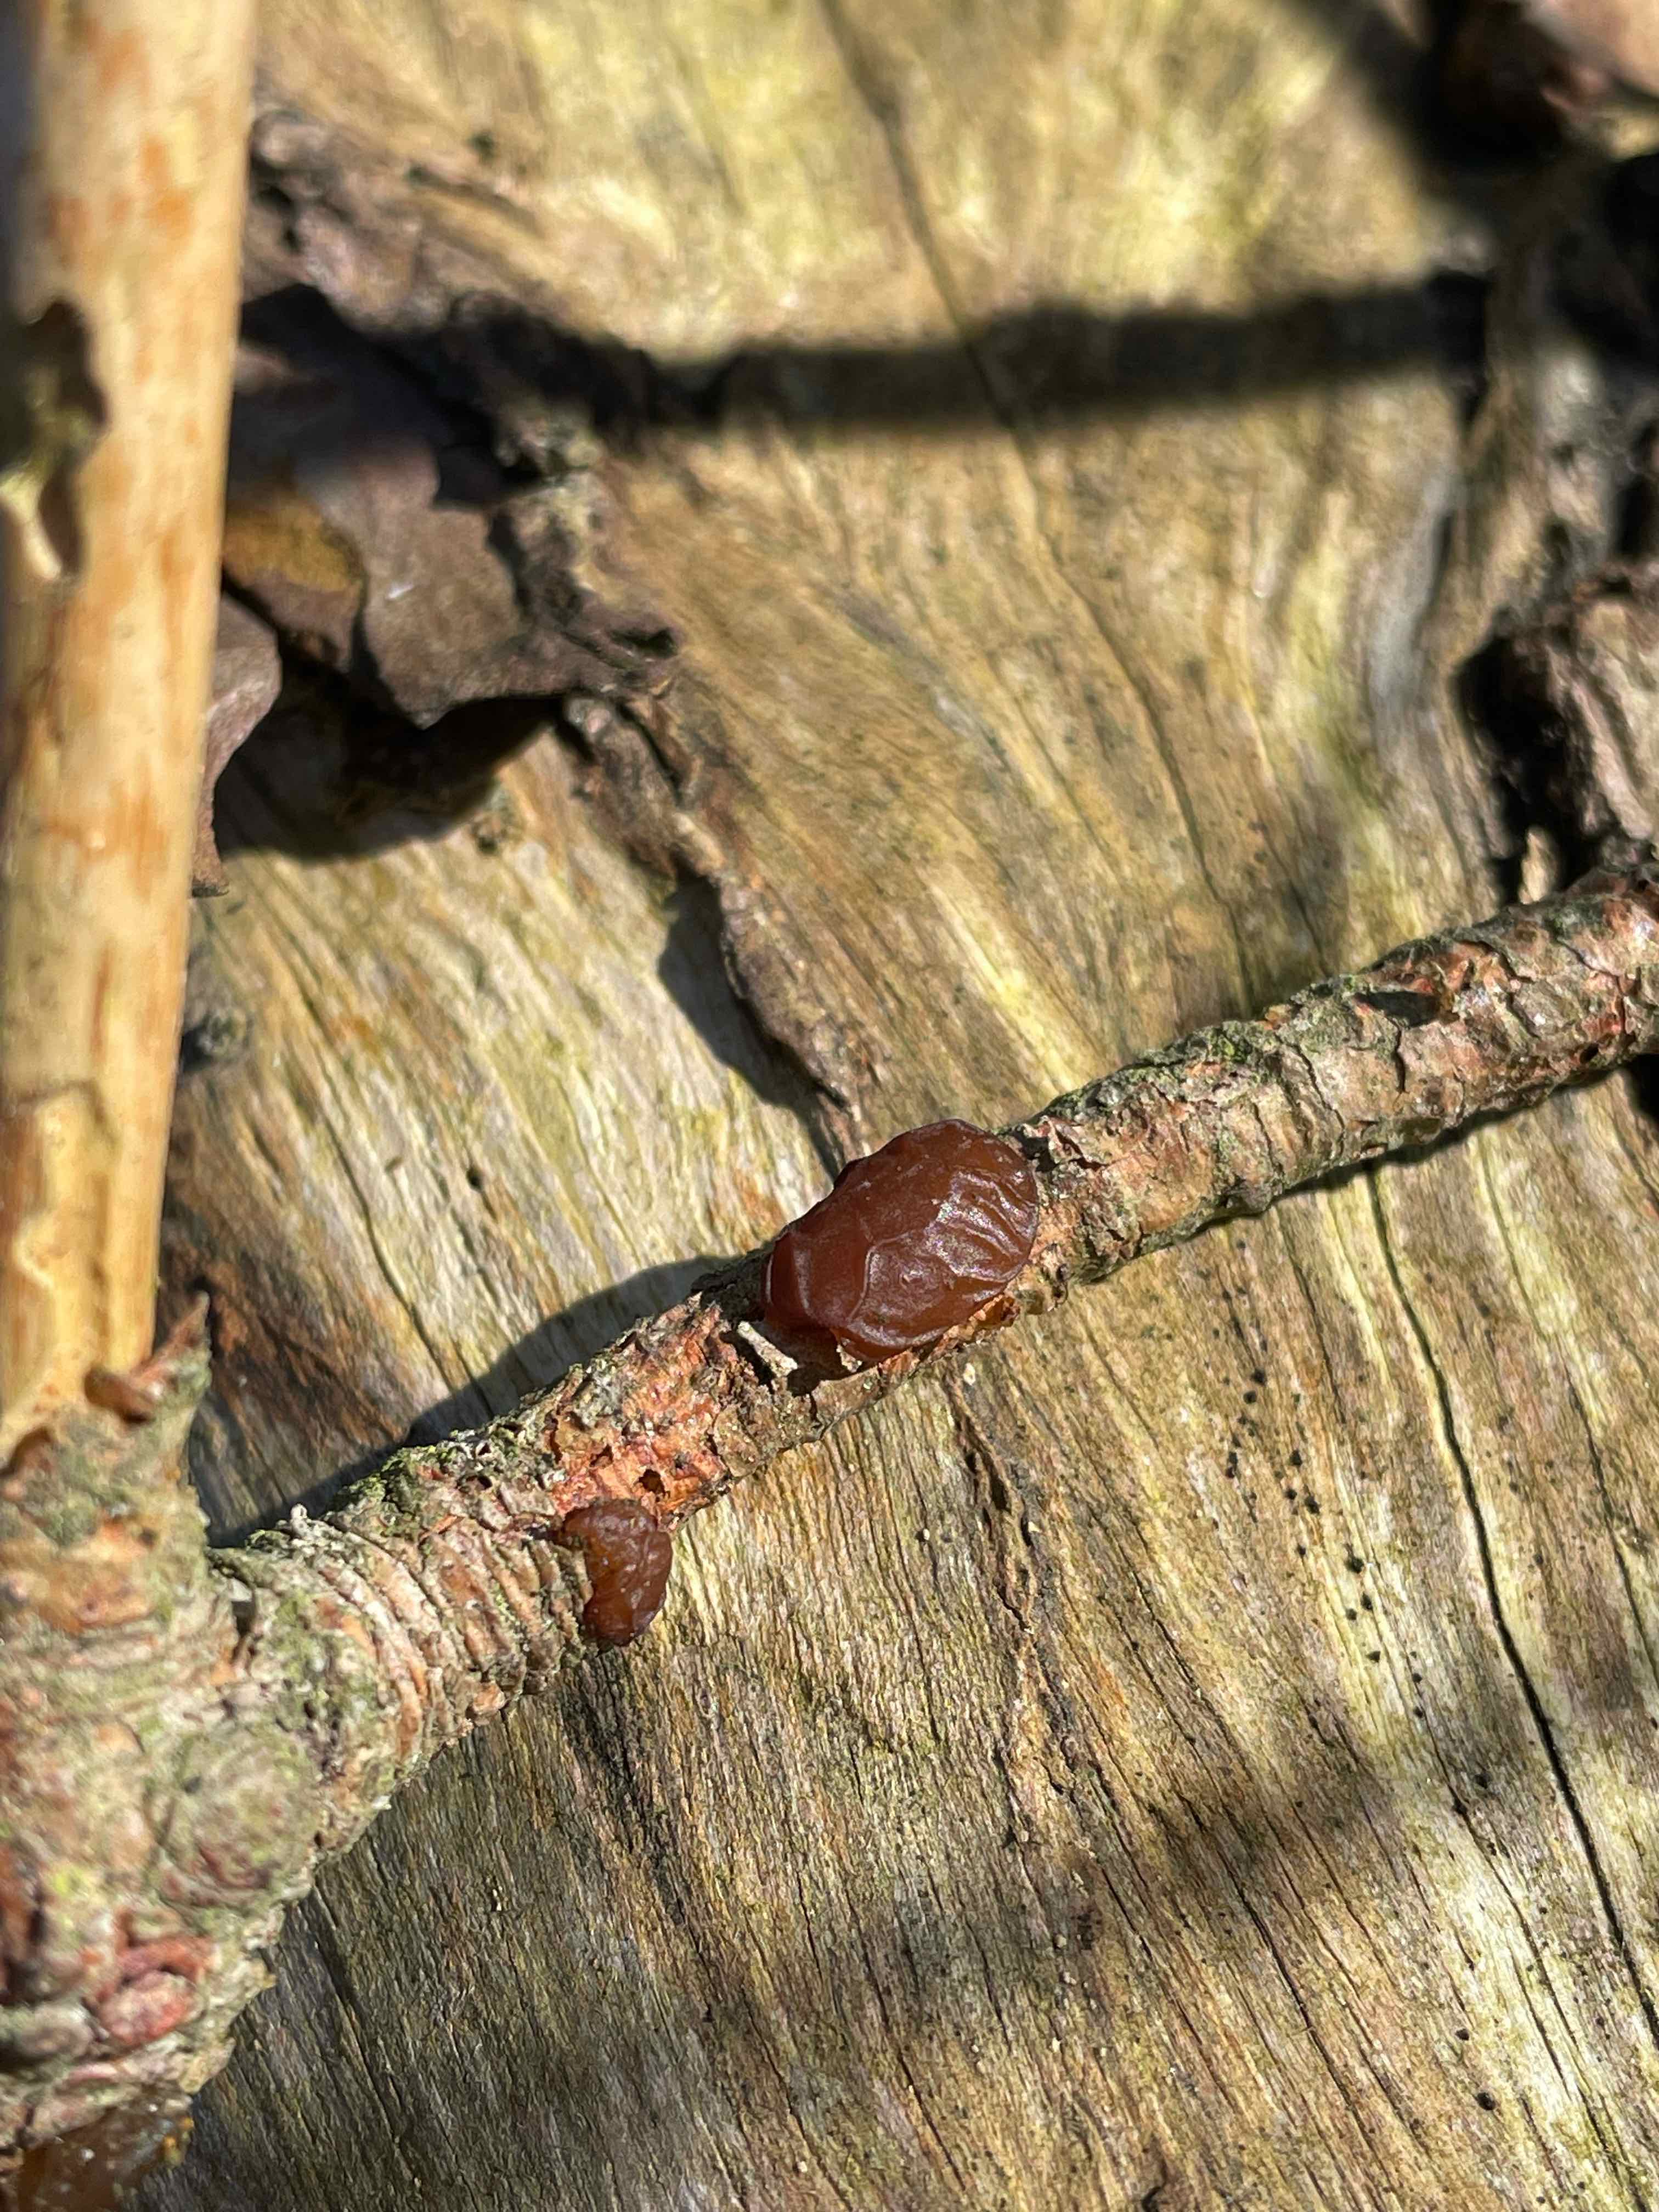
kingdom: Fungi
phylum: Basidiomycota
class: Agaricomycetes
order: Auriculariales
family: Auriculariaceae
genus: Exidia
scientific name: Exidia saccharina
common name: kandis-bævretop
